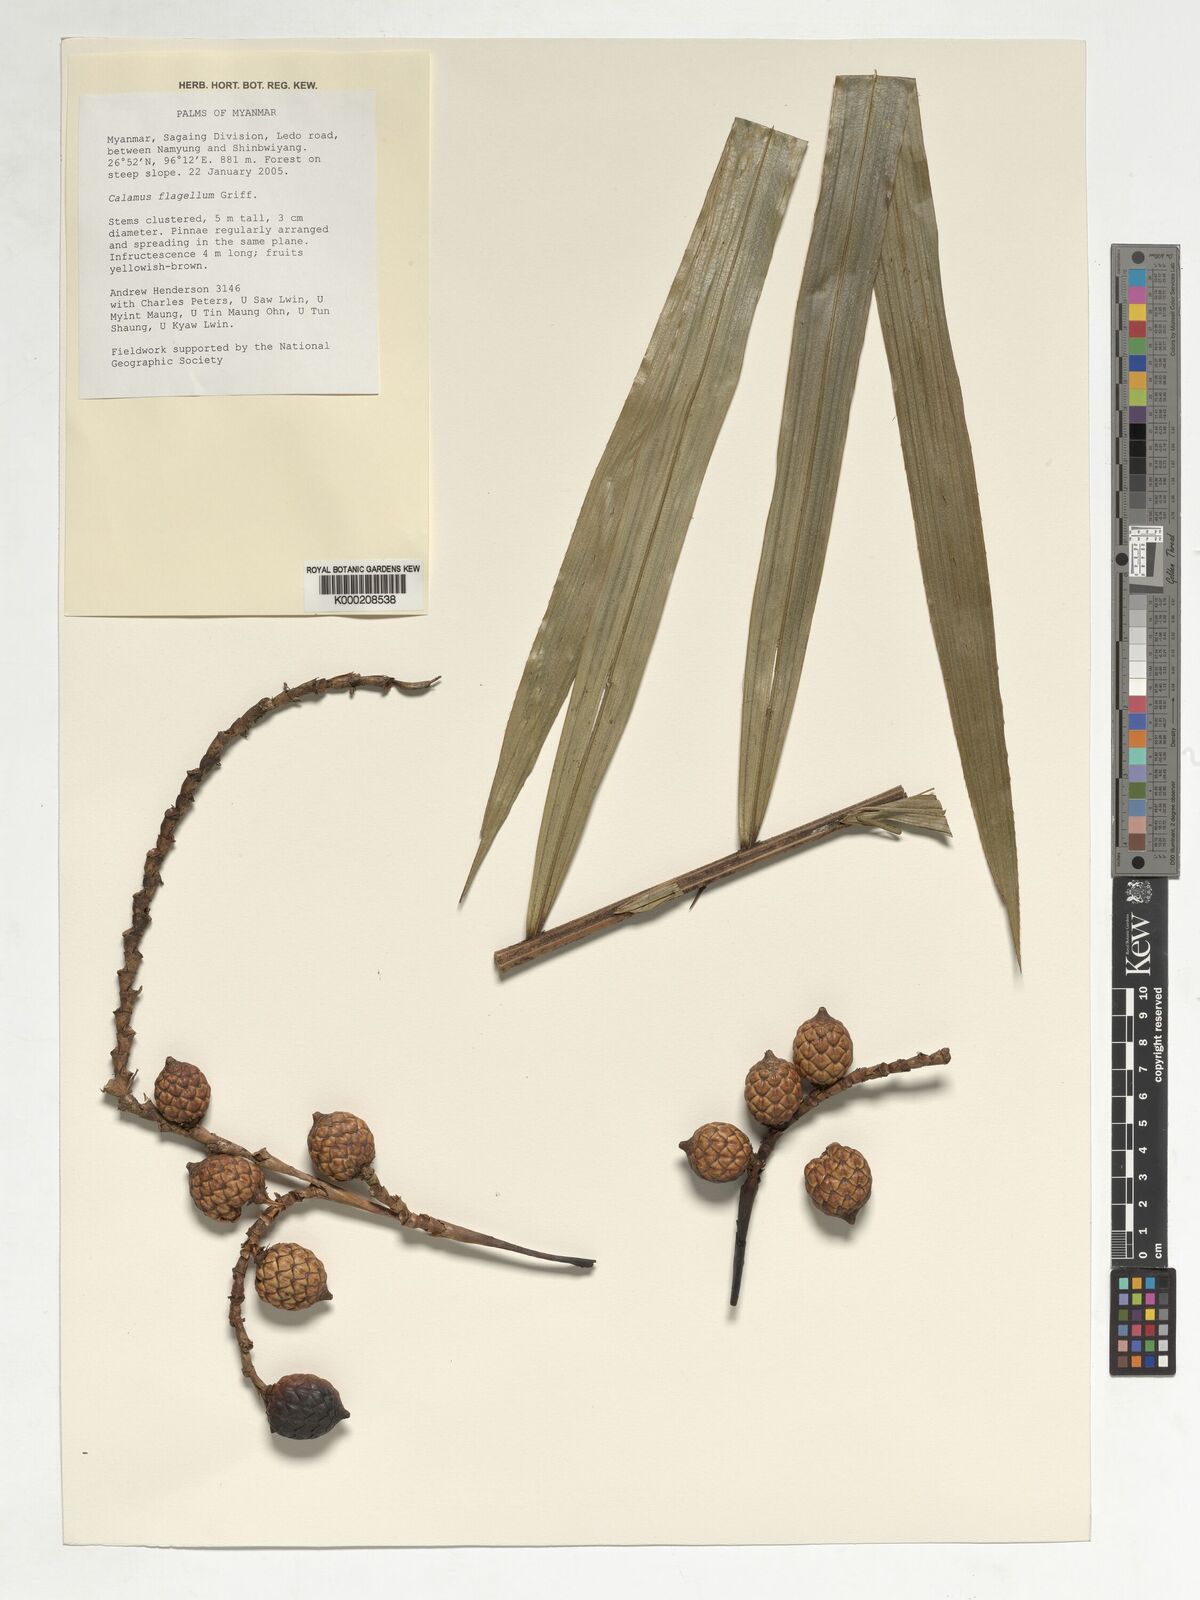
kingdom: Plantae
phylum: Tracheophyta
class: Liliopsida
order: Arecales
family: Arecaceae
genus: Calamus
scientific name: Calamus
